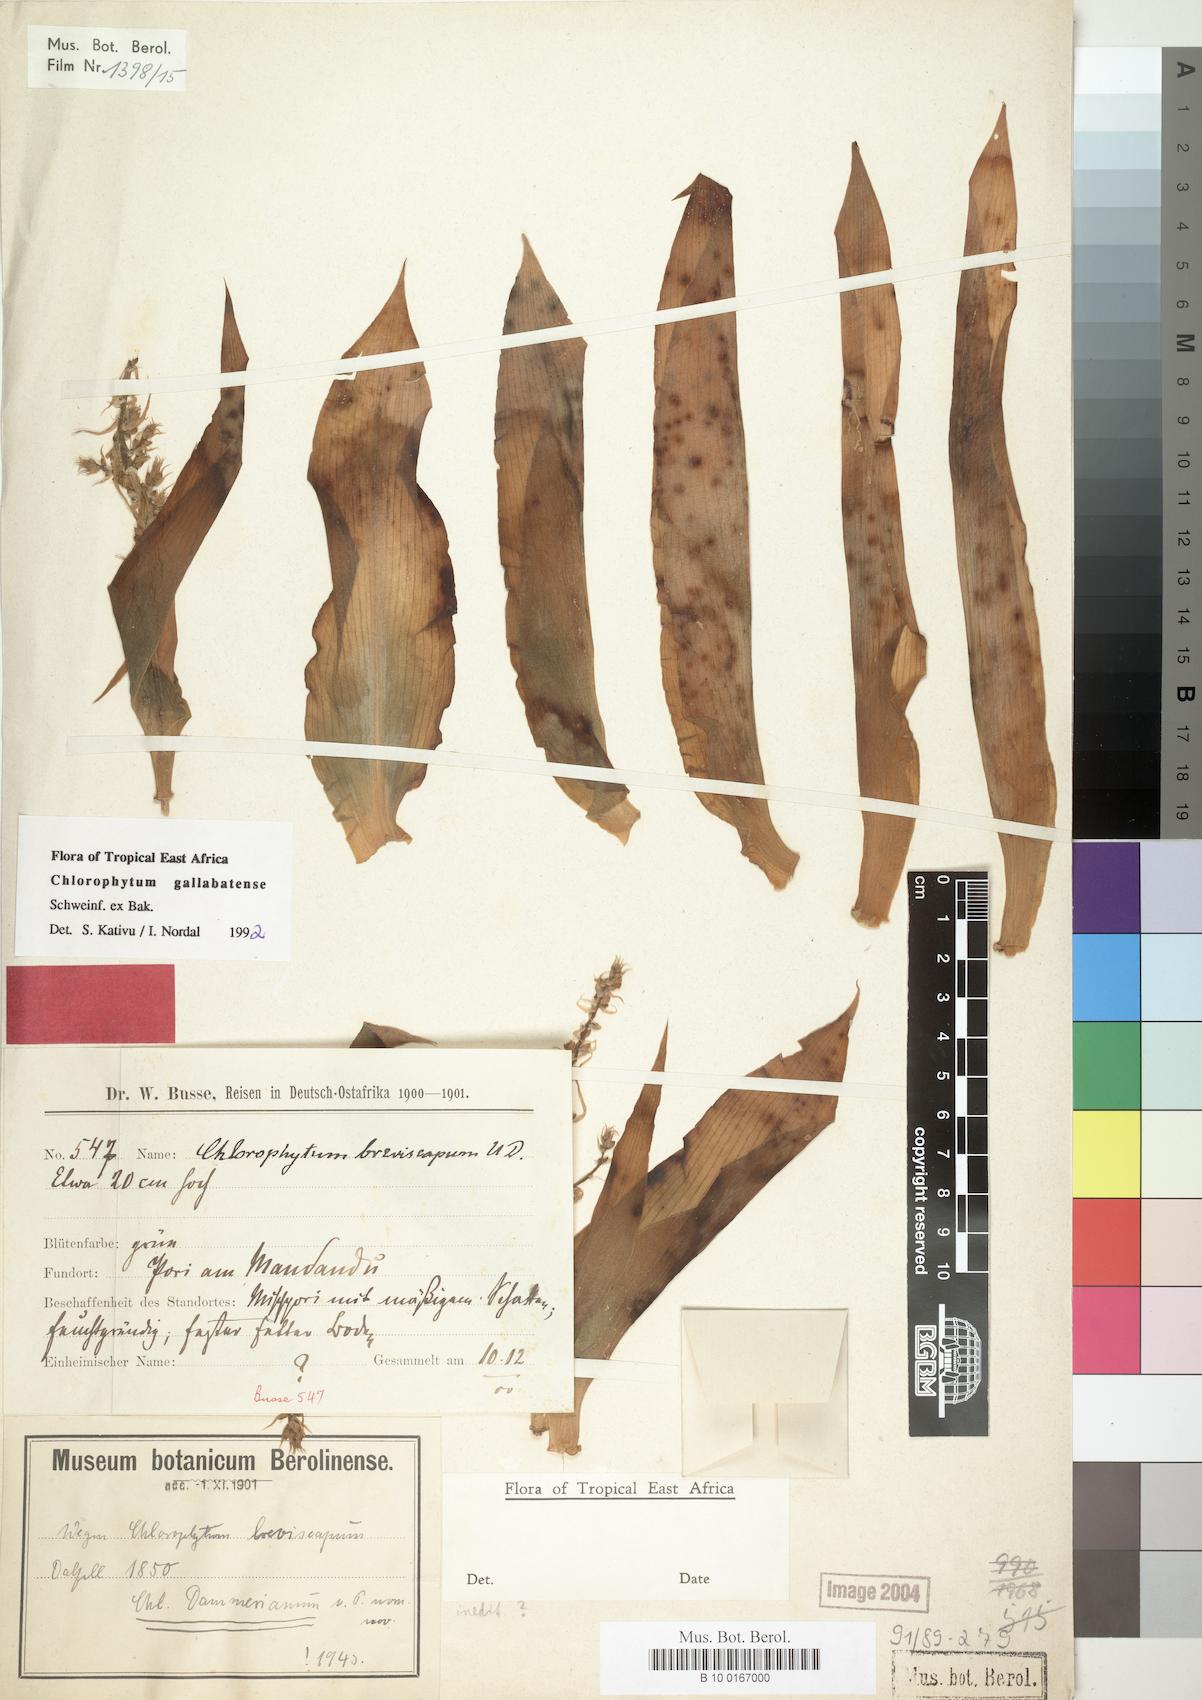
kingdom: Plantae
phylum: Tracheophyta
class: Liliopsida
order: Asparagales
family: Asparagaceae
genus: Chlorophytum
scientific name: Chlorophytum gallabatense
